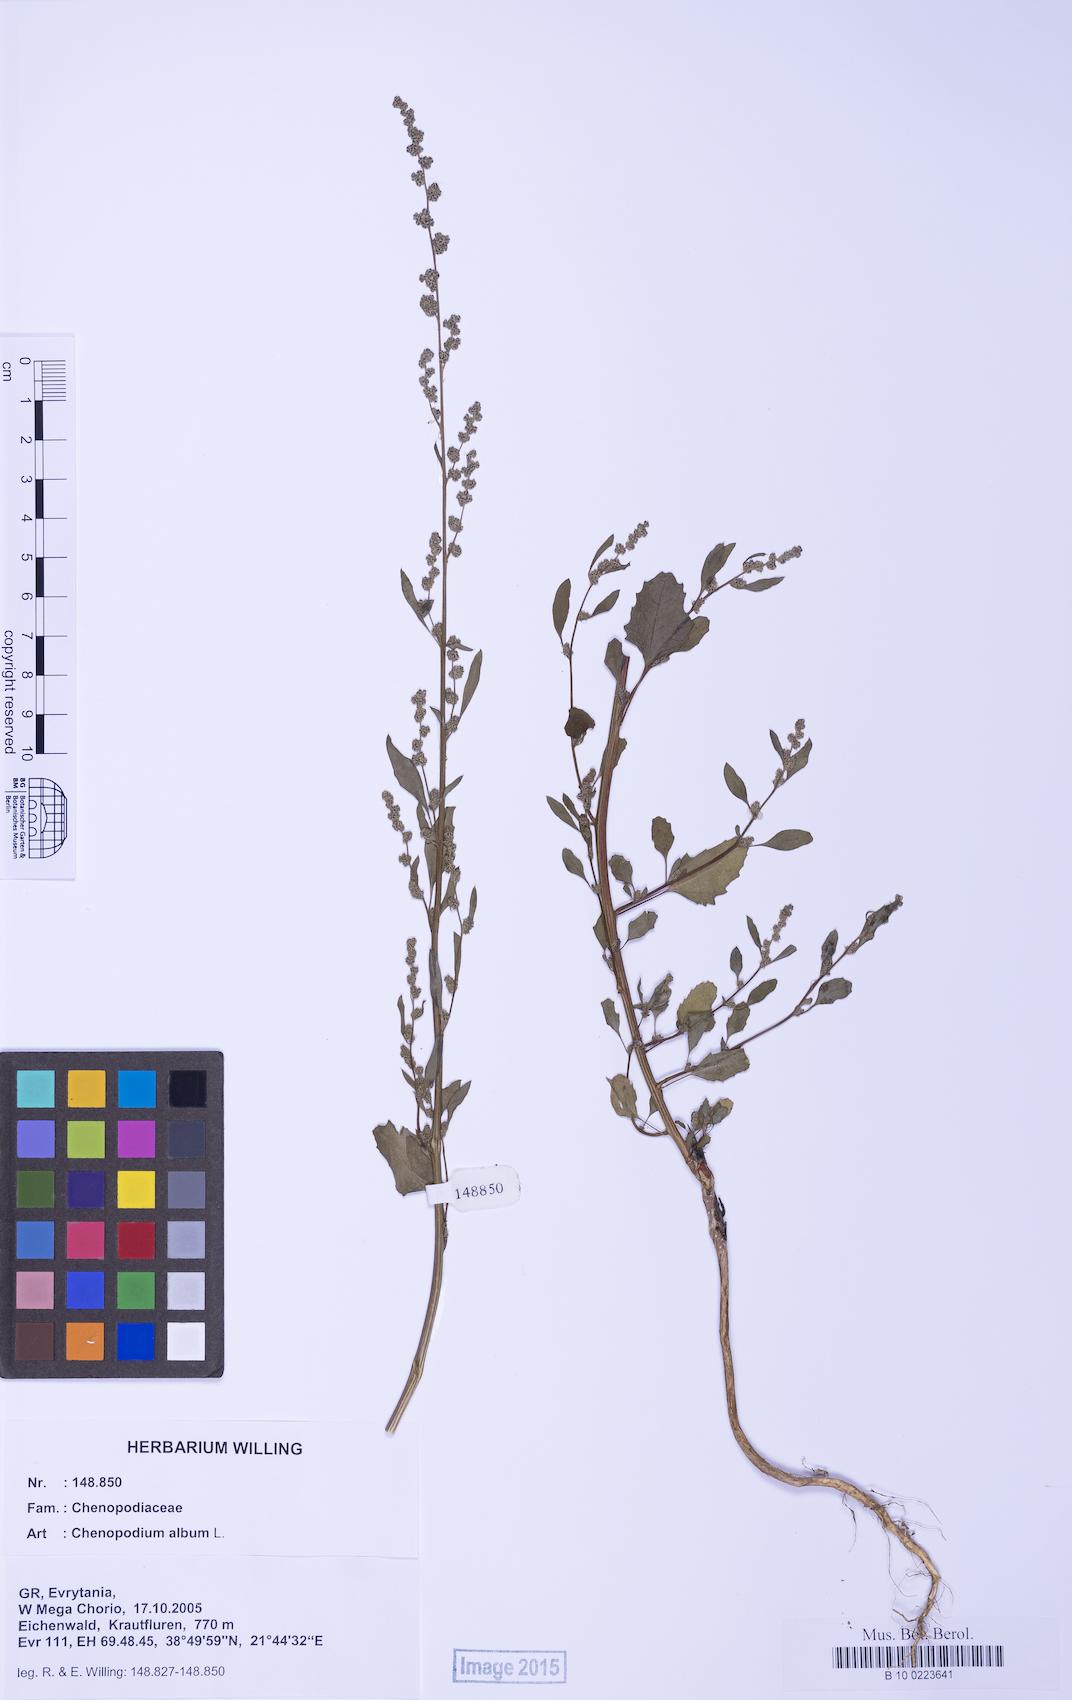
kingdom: Plantae
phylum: Tracheophyta
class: Magnoliopsida
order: Caryophyllales
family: Amaranthaceae
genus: Chenopodium
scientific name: Chenopodium album
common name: Fat-hen
